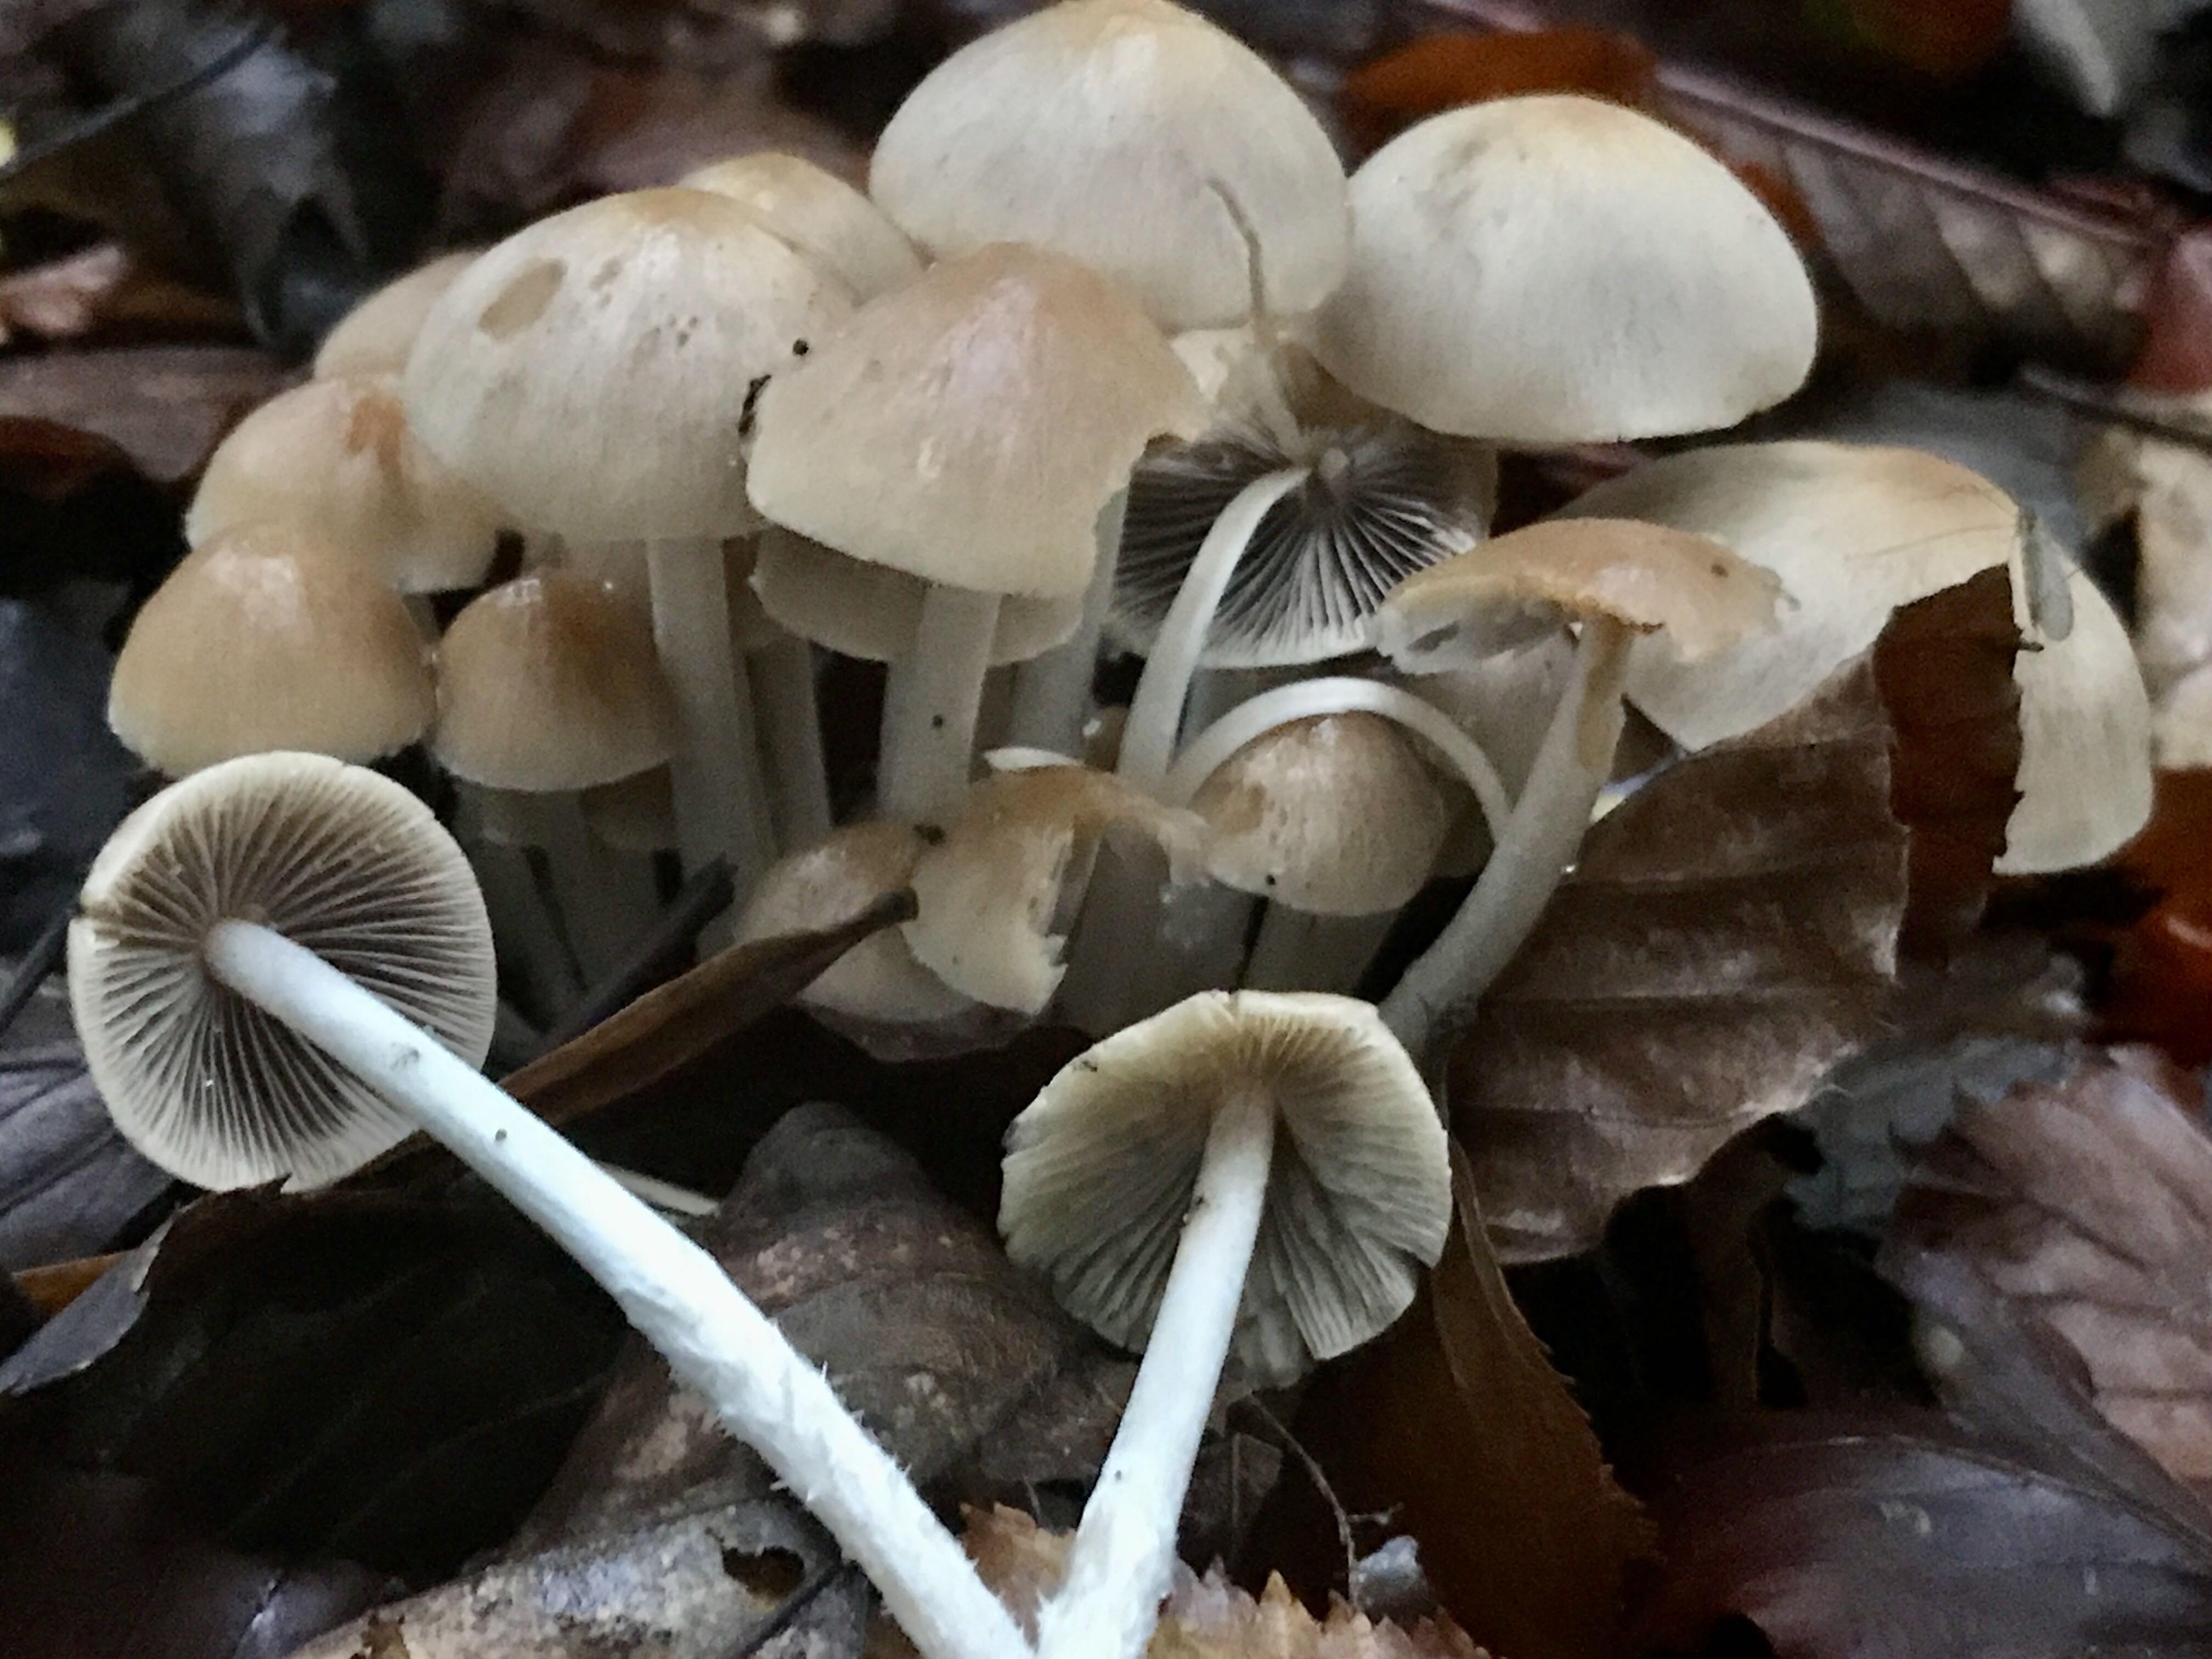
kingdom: Fungi
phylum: Basidiomycota
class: Agaricomycetes
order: Agaricales
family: Psathyrellaceae
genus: Britzelmayria
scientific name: Britzelmayria multipedata
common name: knippe-mørkhat
